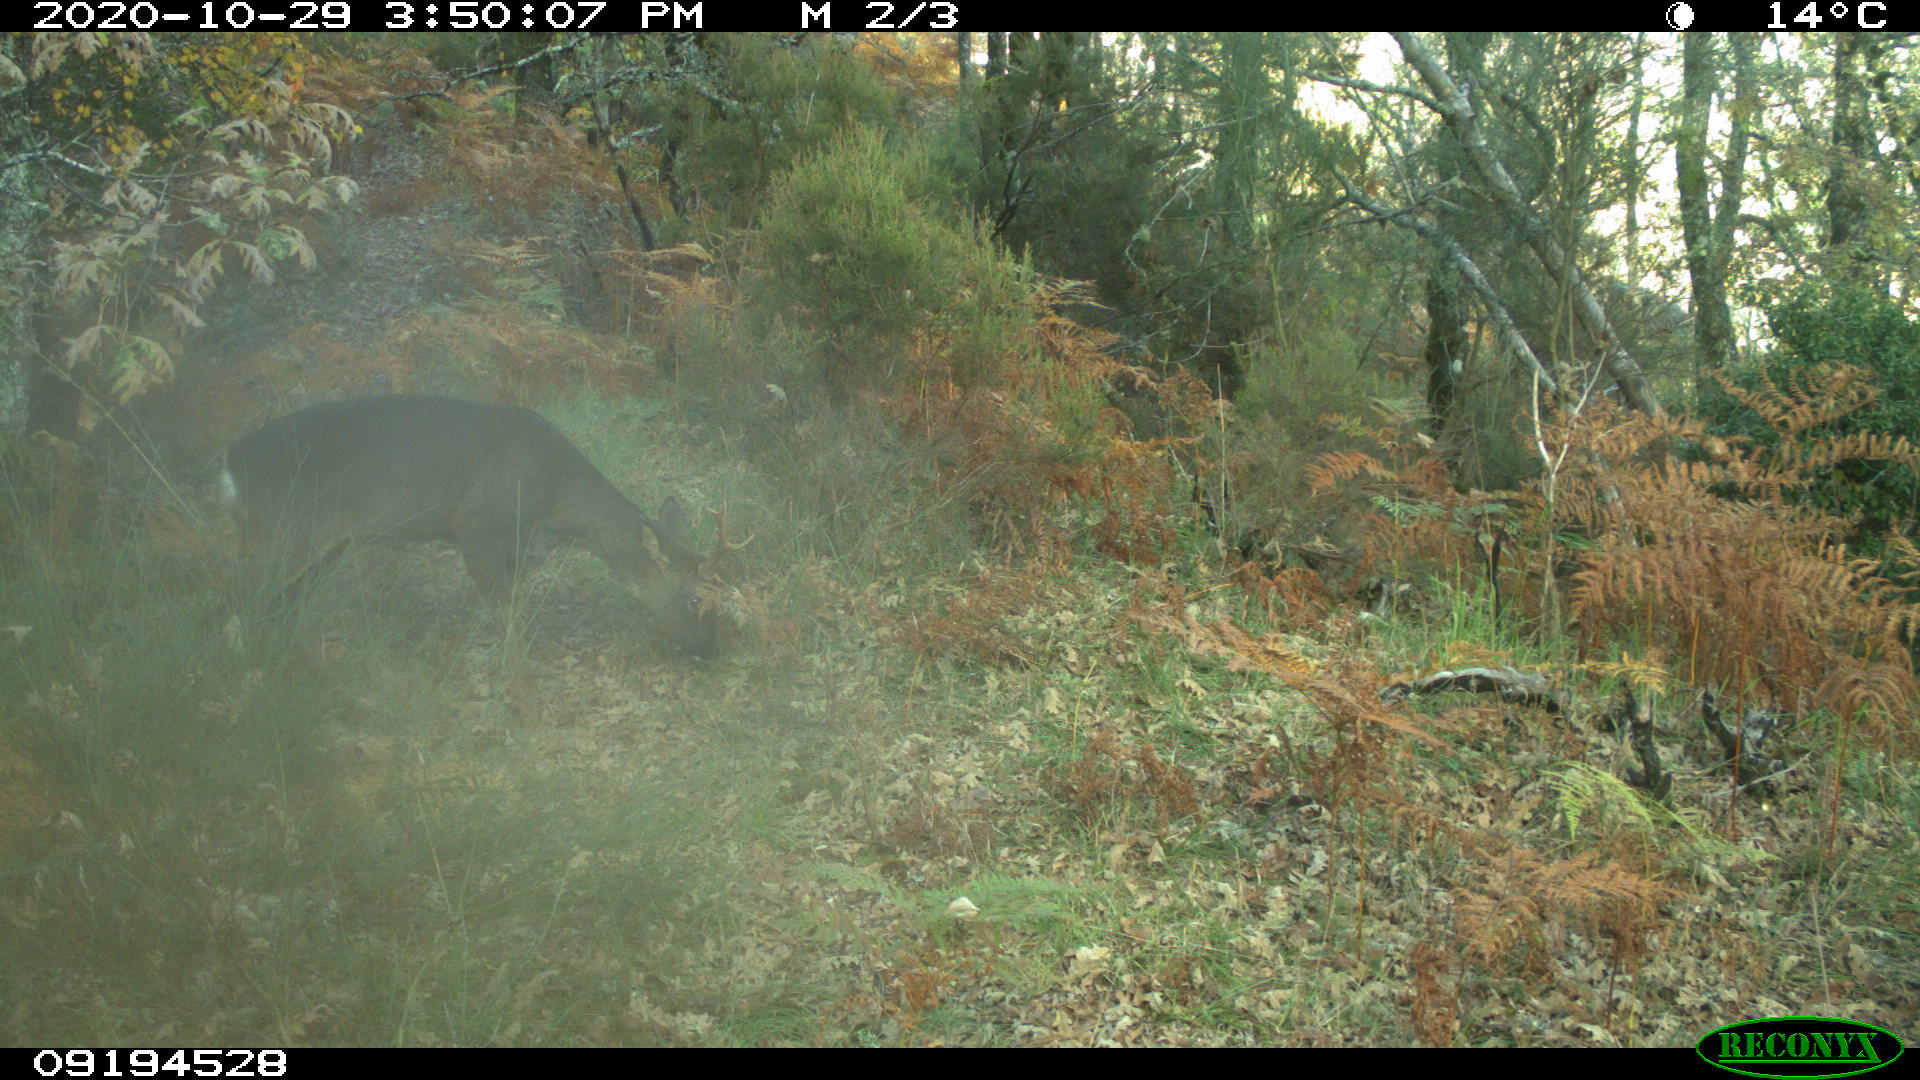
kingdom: Animalia
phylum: Chordata
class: Mammalia
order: Artiodactyla
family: Cervidae
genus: Capreolus
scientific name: Capreolus capreolus
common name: Western roe deer
